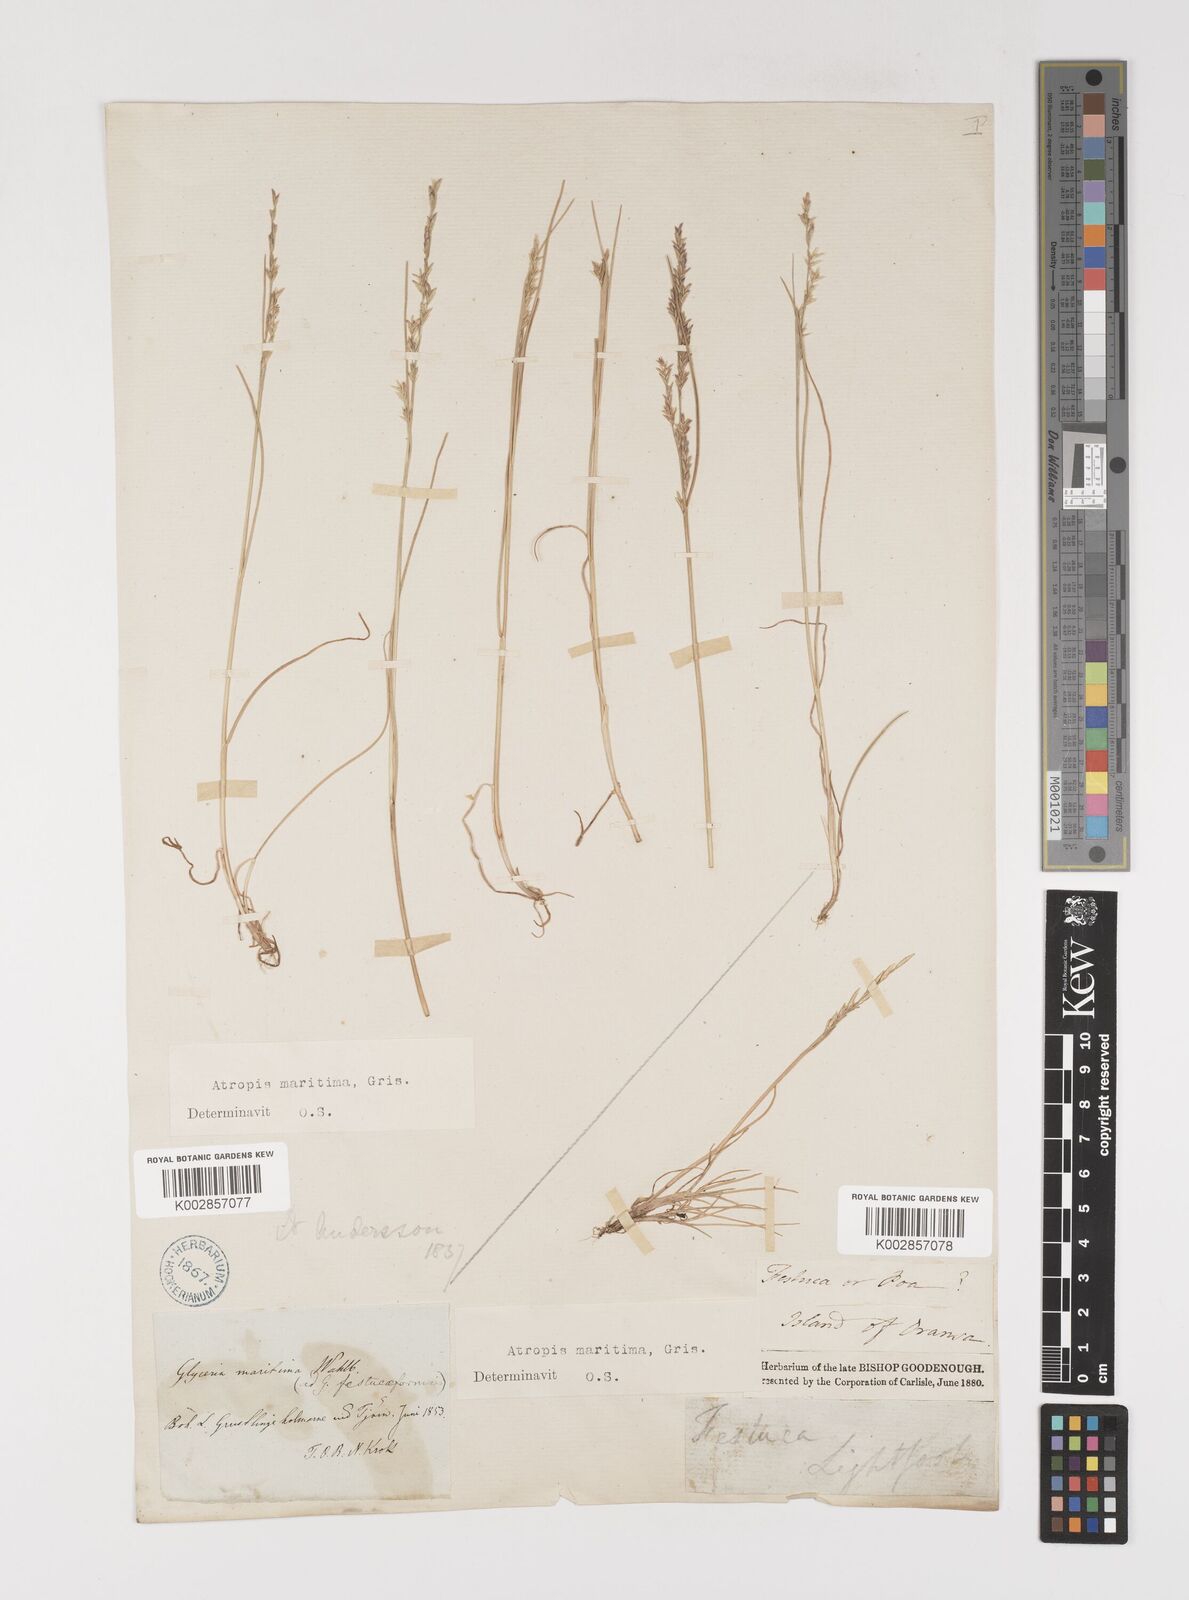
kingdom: Plantae
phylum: Tracheophyta
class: Liliopsida
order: Poales
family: Poaceae
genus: Puccinellia
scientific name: Puccinellia maritima
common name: Common saltmarsh grass
